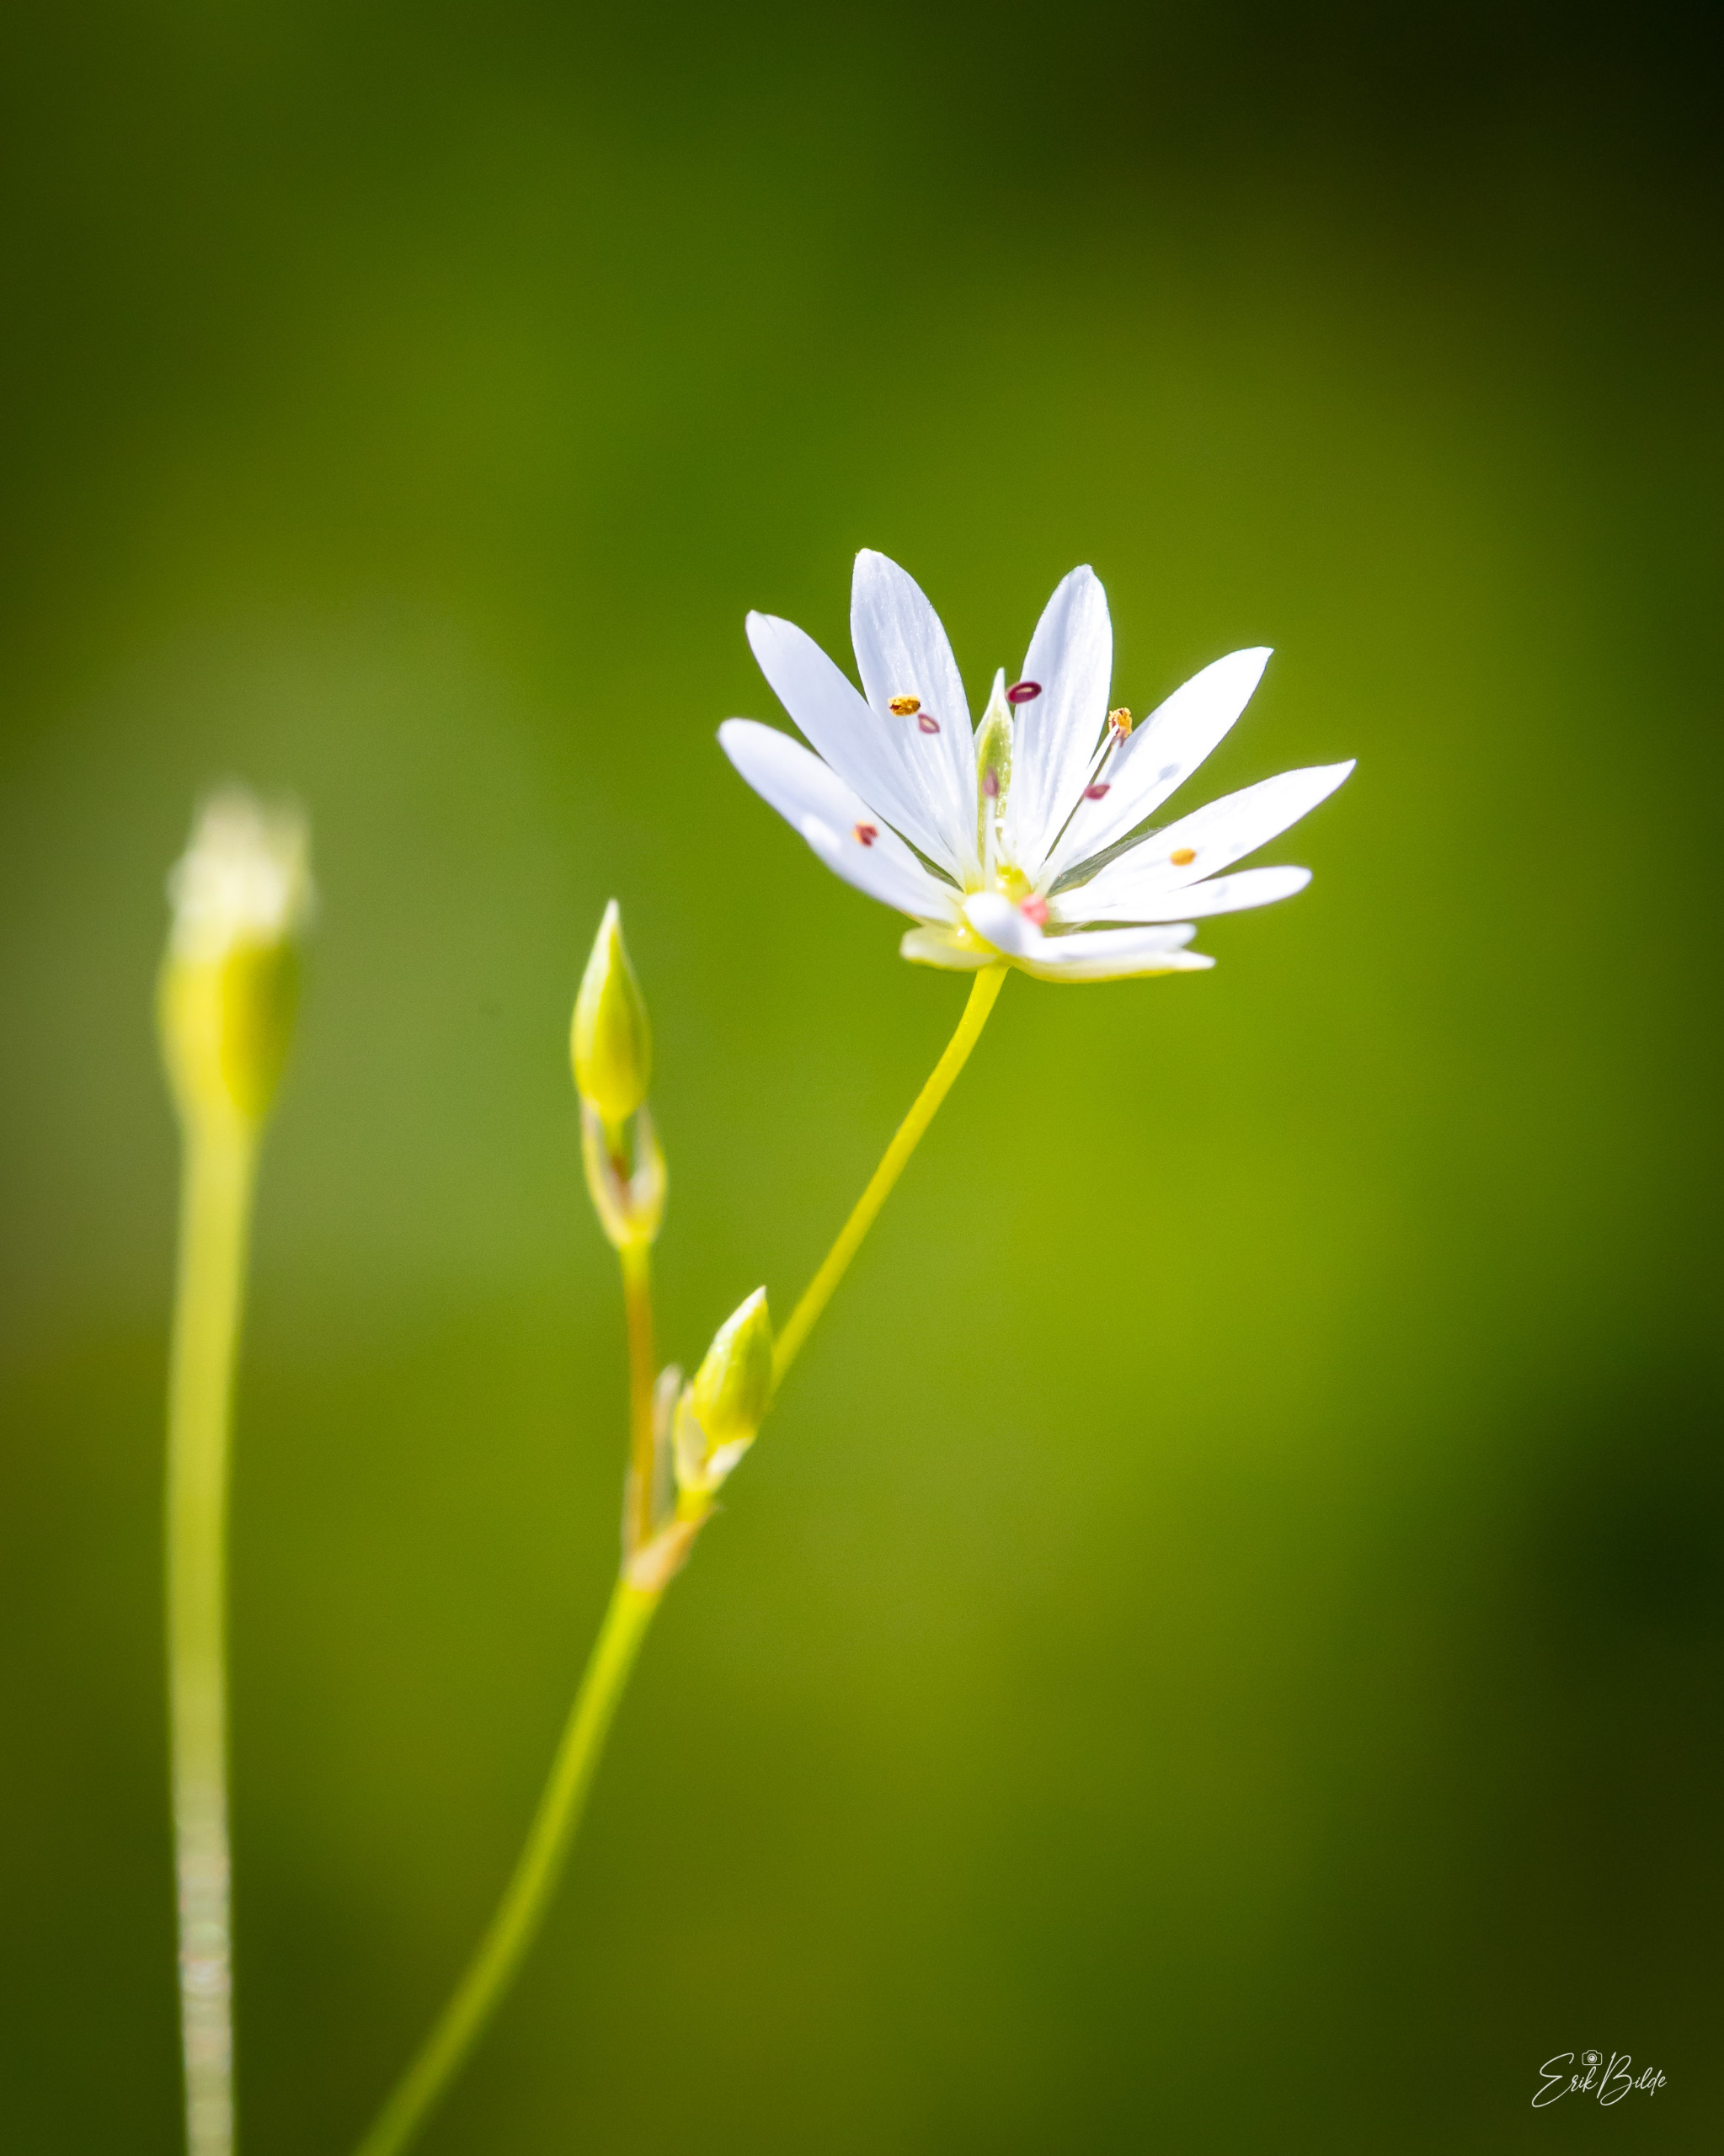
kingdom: Plantae
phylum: Tracheophyta
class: Magnoliopsida
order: Caryophyllales
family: Caryophyllaceae
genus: Stellaria
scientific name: Stellaria graminea
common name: Græsbladet fladstjerne
